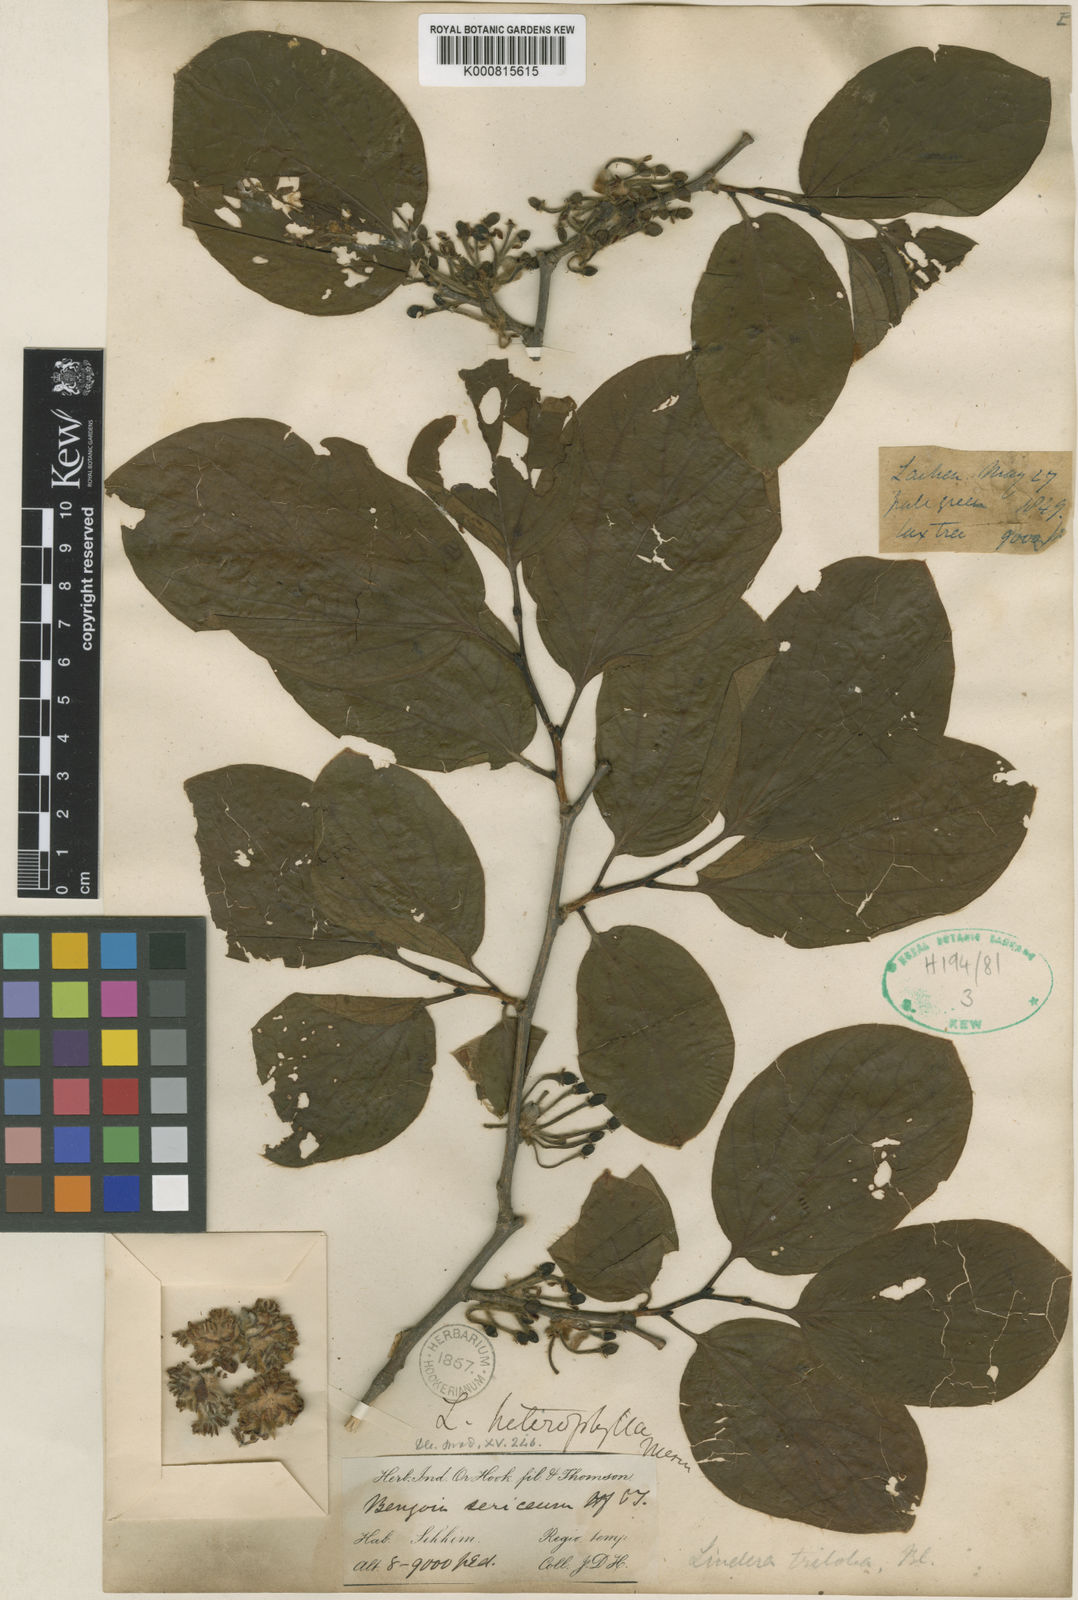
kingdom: Plantae
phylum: Tracheophyta
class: Magnoliopsida
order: Laurales
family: Lauraceae
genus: Lindera
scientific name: Lindera obtusiloba
